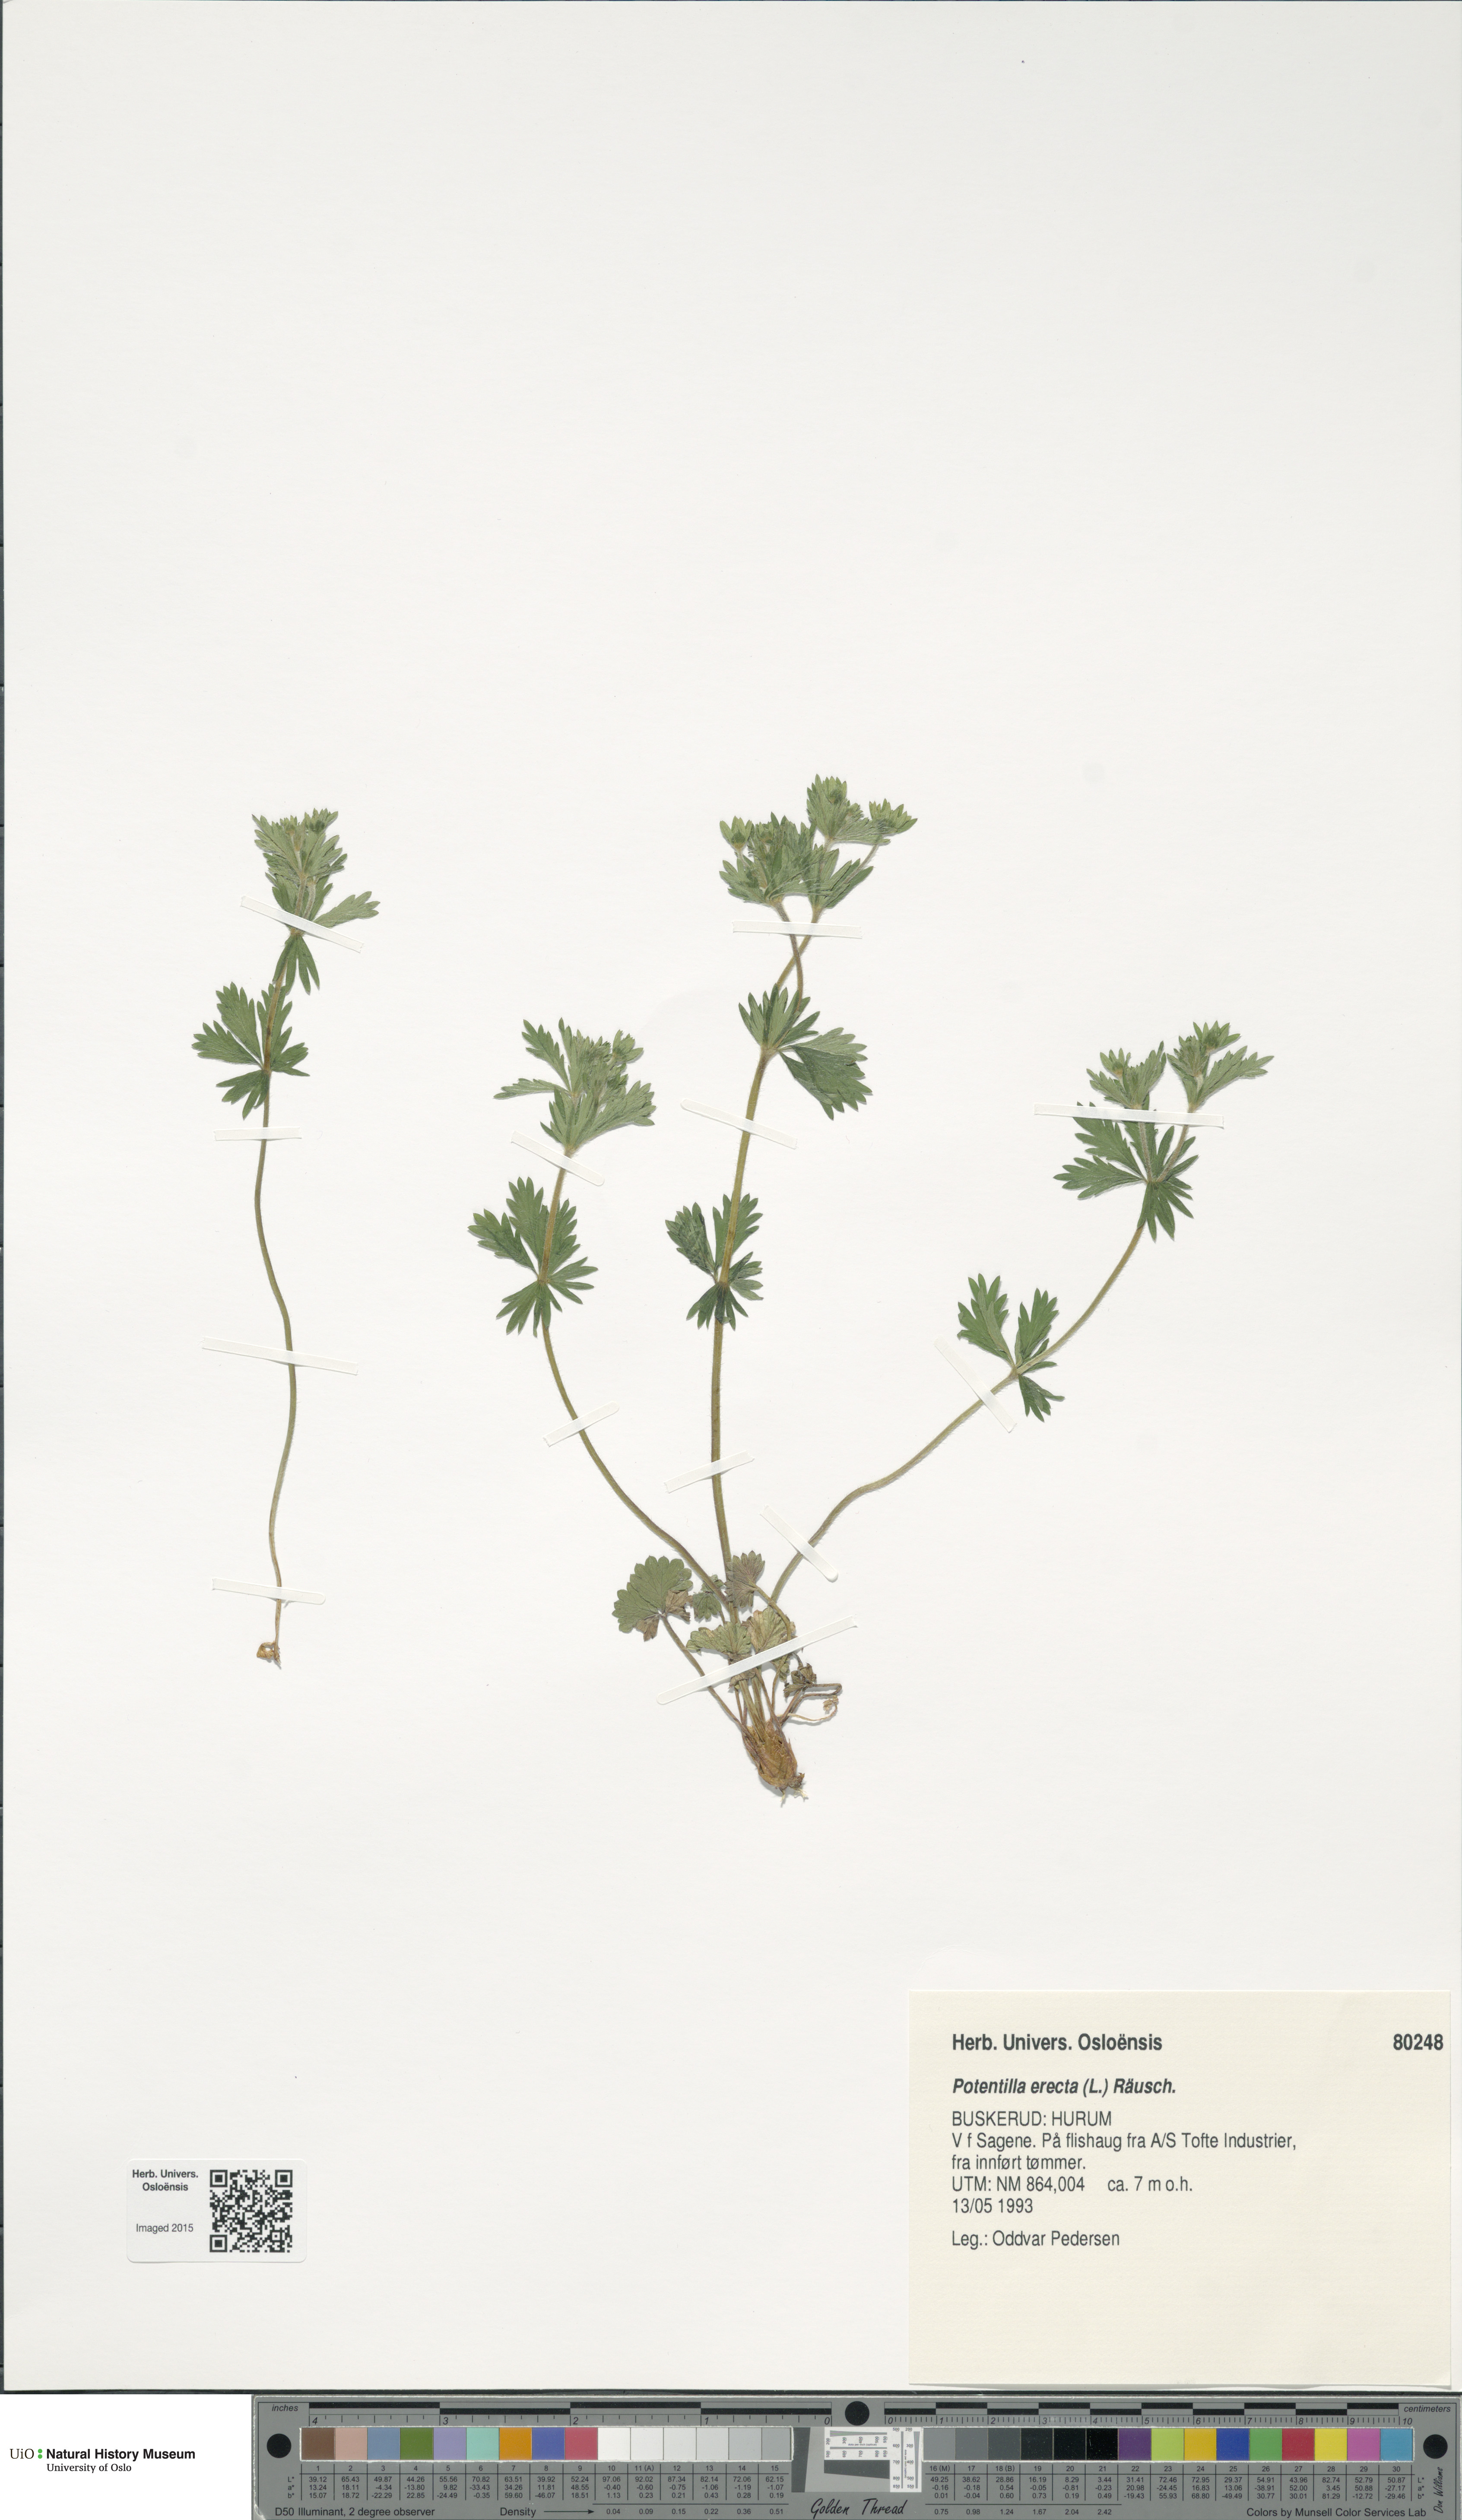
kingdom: Plantae
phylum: Tracheophyta
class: Magnoliopsida
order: Rosales
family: Rosaceae
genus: Potentilla
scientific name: Potentilla erecta
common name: Tormentil
